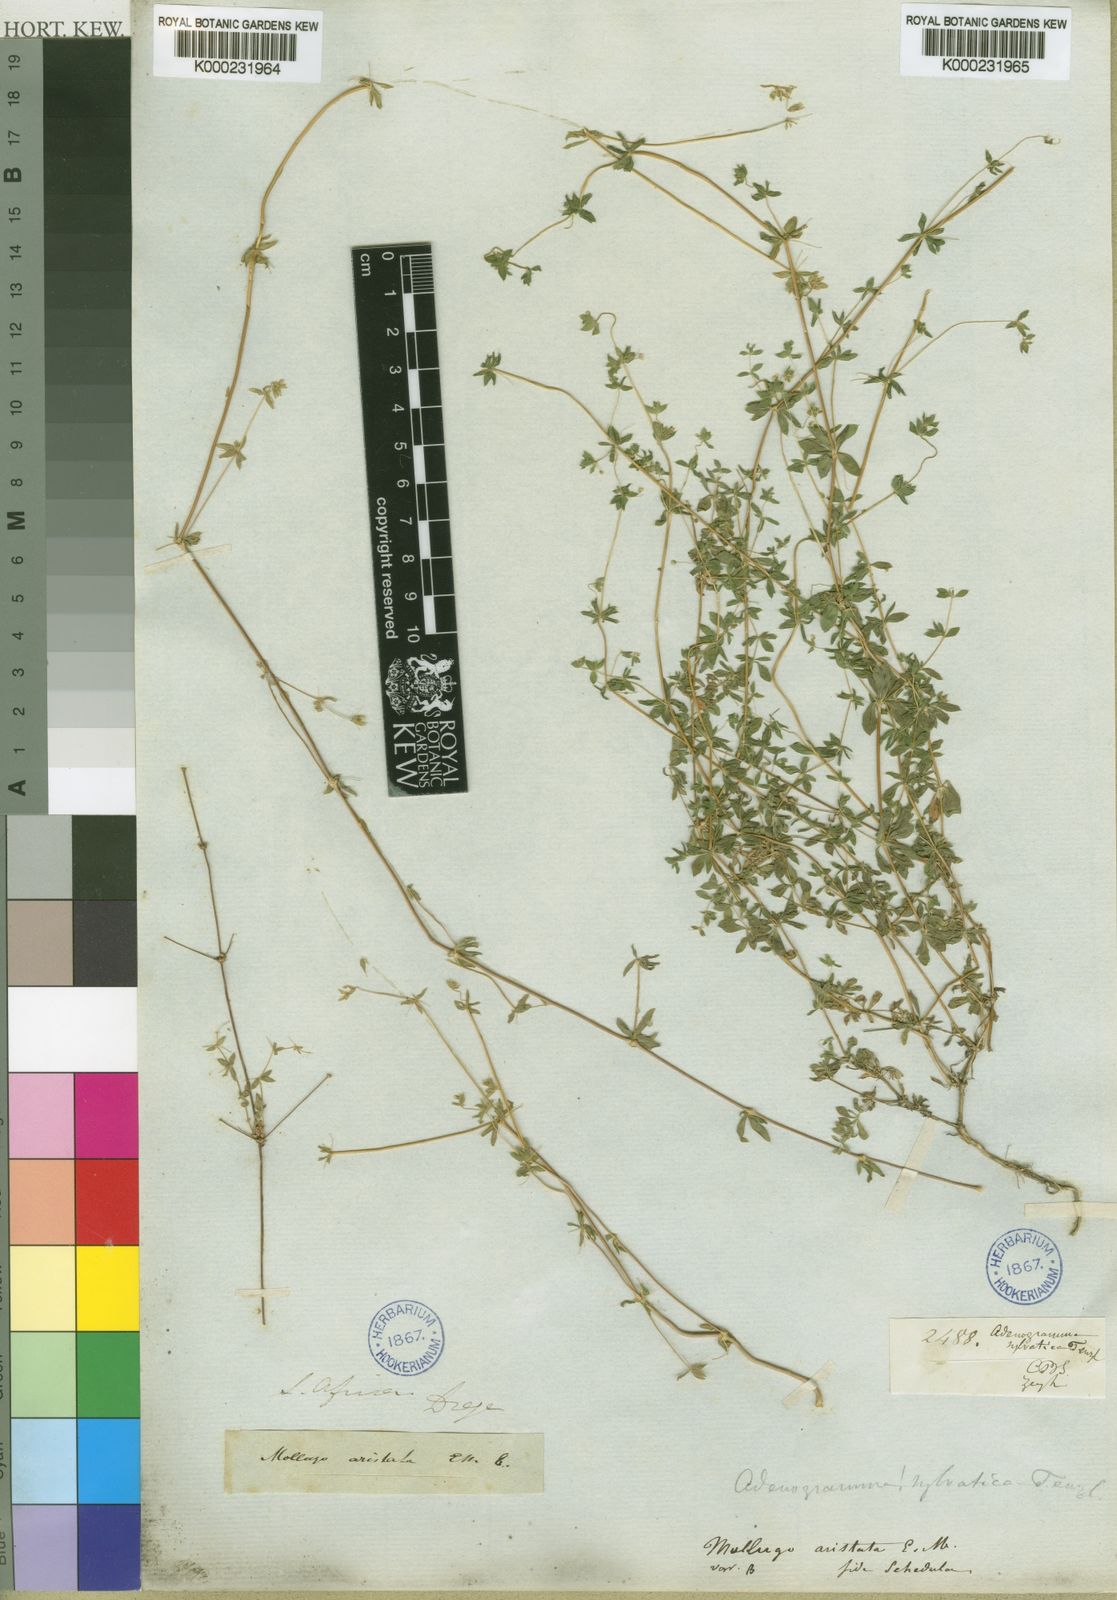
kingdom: Plantae
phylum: Tracheophyta
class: Magnoliopsida
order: Caryophyllales
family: Molluginaceae
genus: Adenogramma
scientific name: Adenogramma sylvatica
